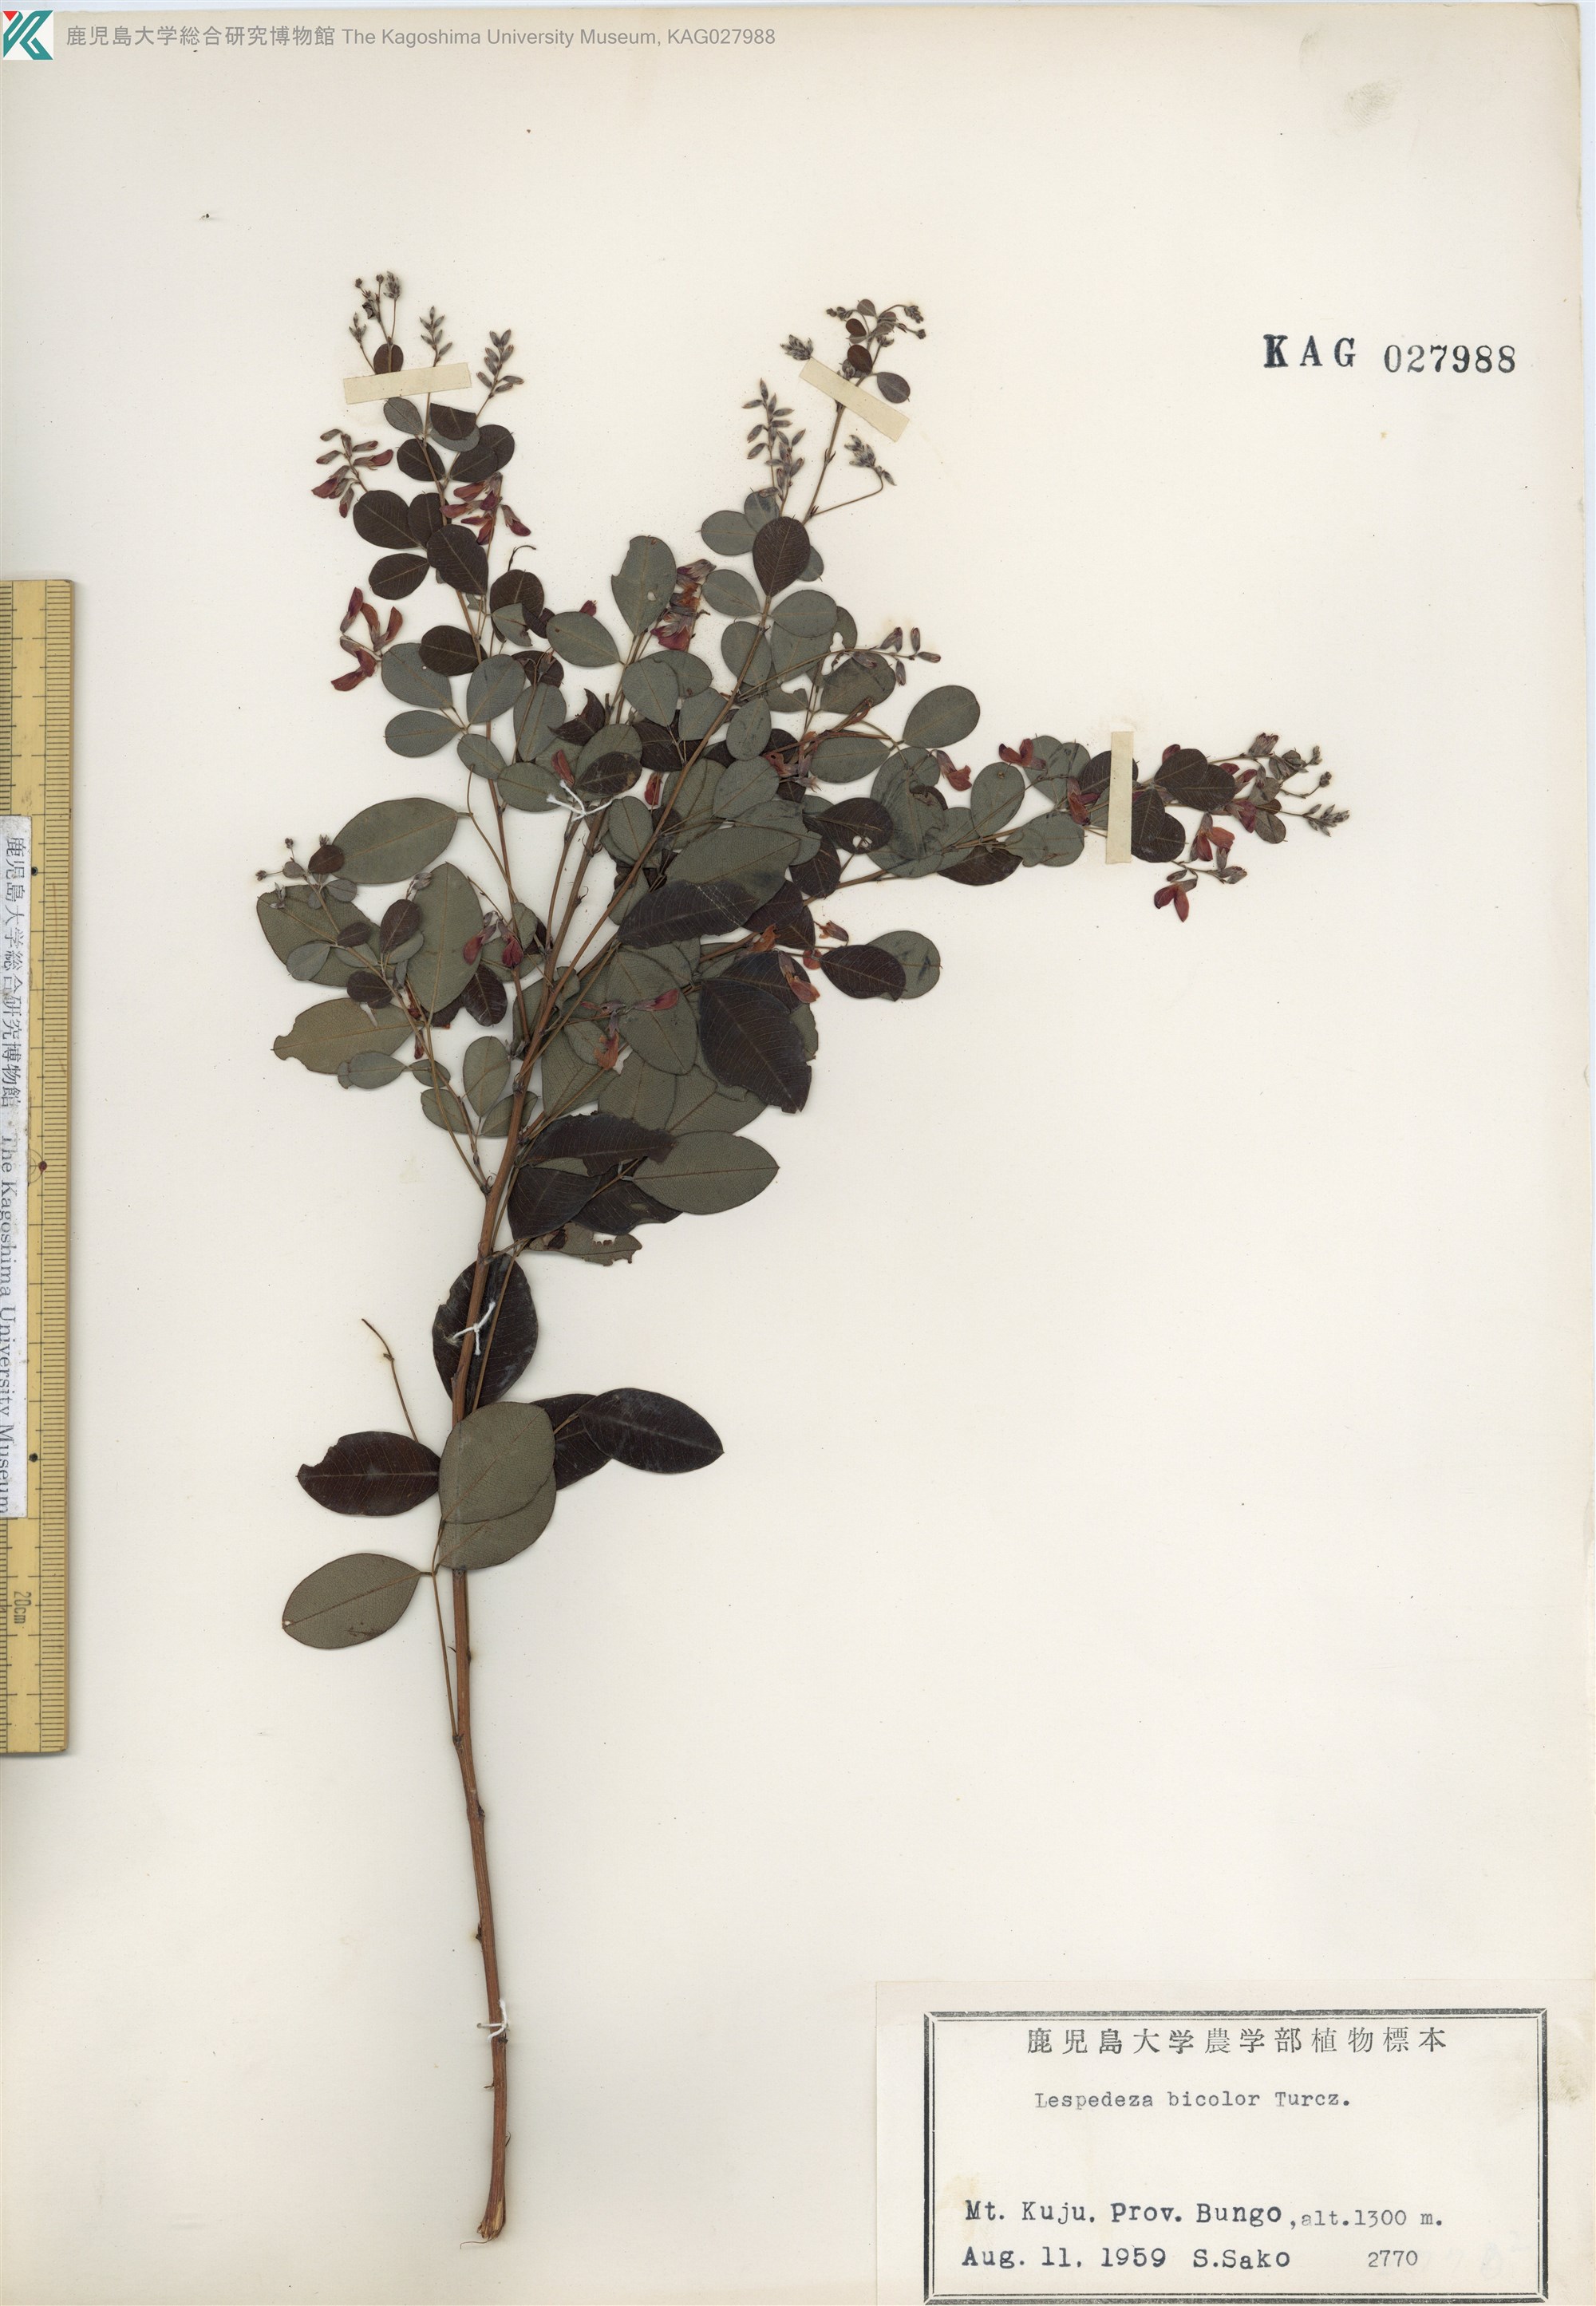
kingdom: Plantae
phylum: Tracheophyta
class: Magnoliopsida
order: Fabales
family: Fabaceae
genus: Lespedeza
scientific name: Lespedeza bicolor
